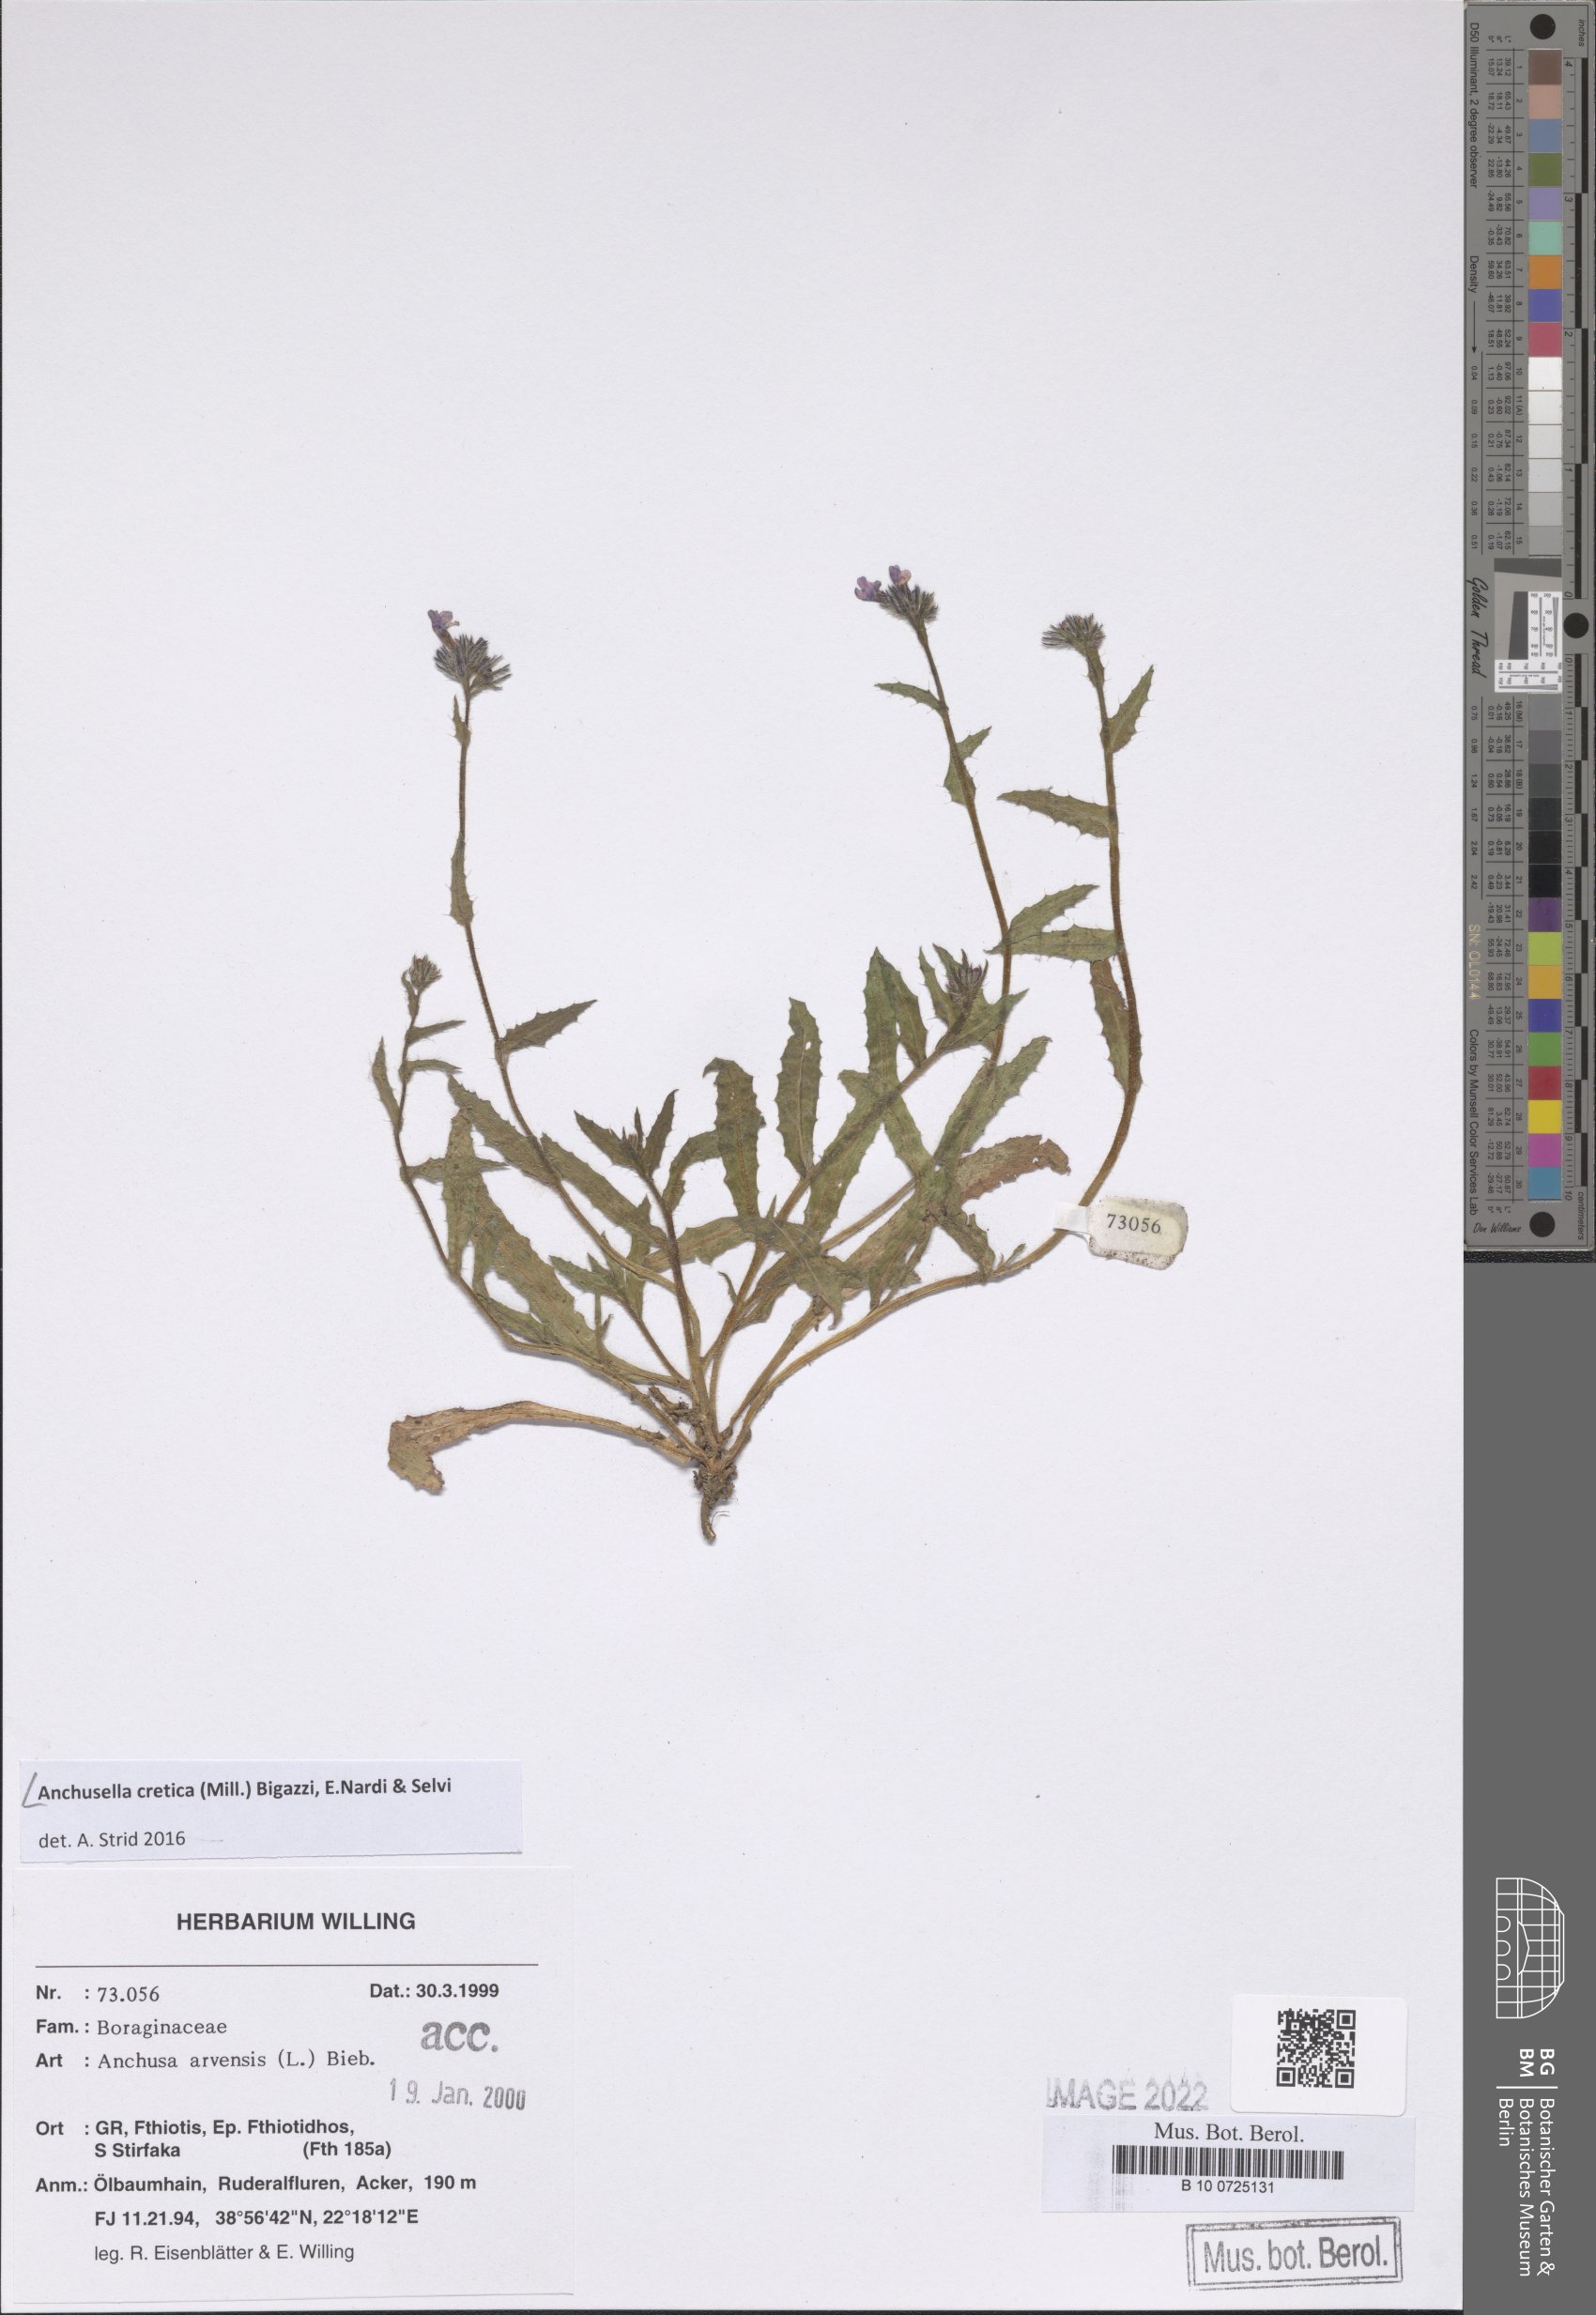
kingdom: Plantae
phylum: Tracheophyta
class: Magnoliopsida
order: Boraginales
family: Boraginaceae
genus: Anchusella
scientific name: Anchusella cretica
